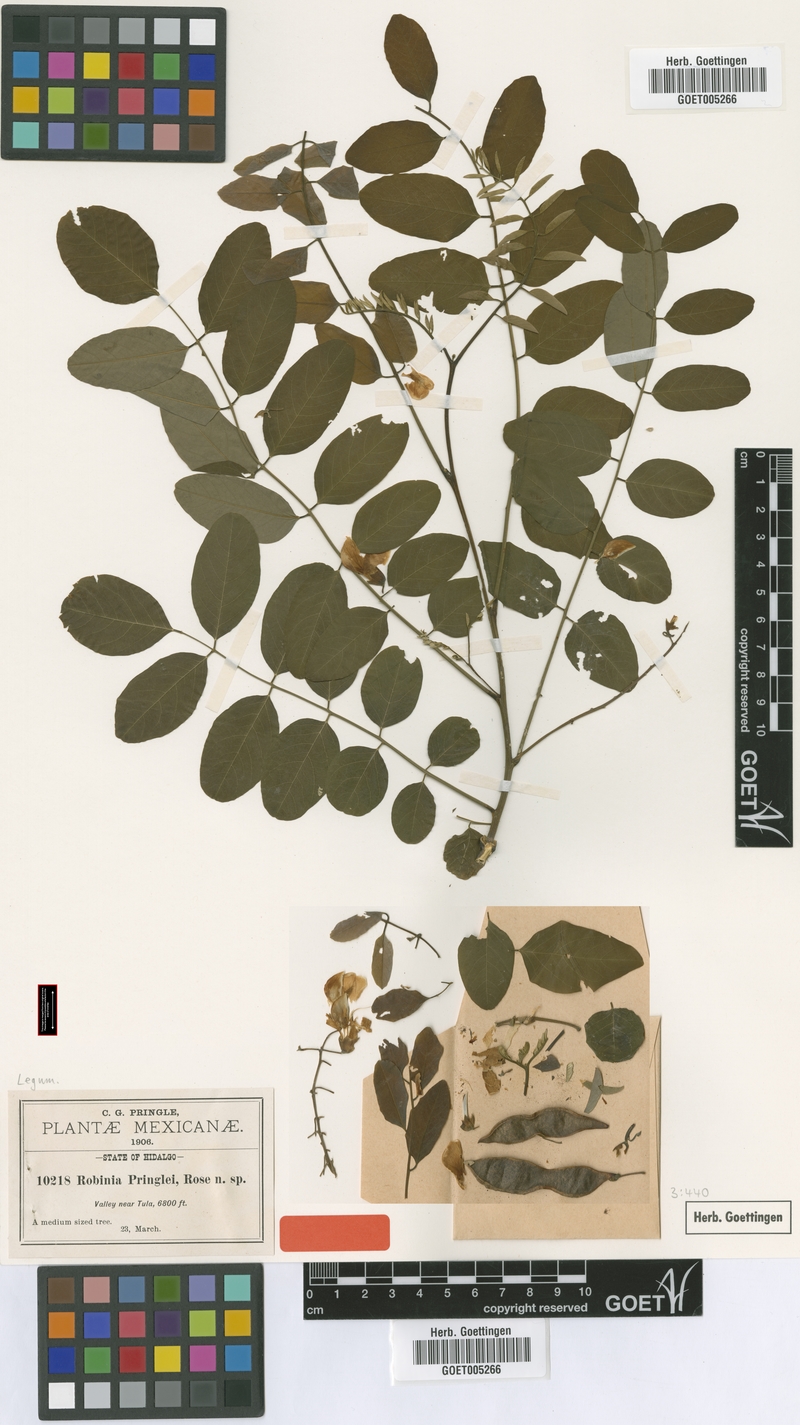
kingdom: Plantae
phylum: Tracheophyta
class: Magnoliopsida
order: Fabales
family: Fabaceae
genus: Robinia
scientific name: Robinia pseudoacacia
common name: Black locust
